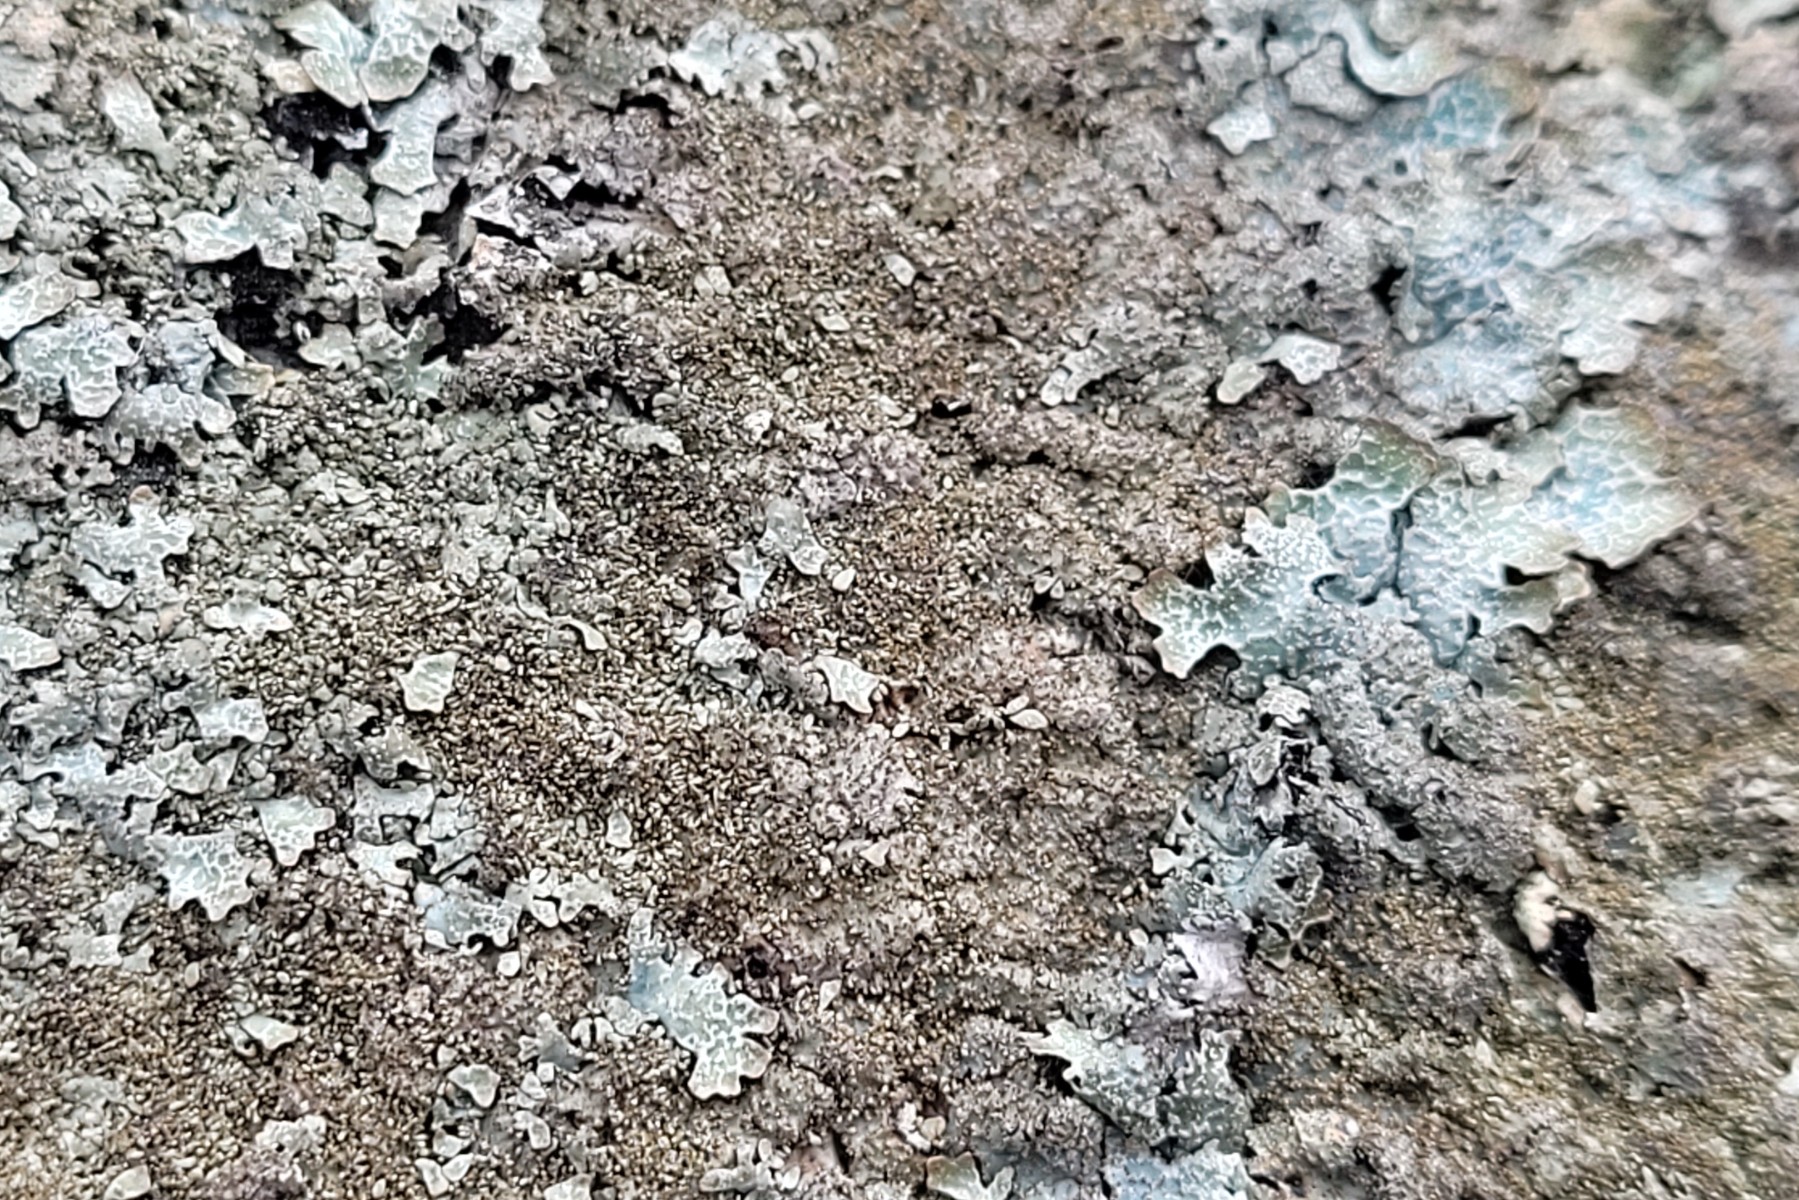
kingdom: Fungi
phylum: Ascomycota
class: Lecanoromycetes
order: Lecanorales
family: Parmeliaceae
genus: Parmelia
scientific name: Parmelia saxatilis
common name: farve-skållav
